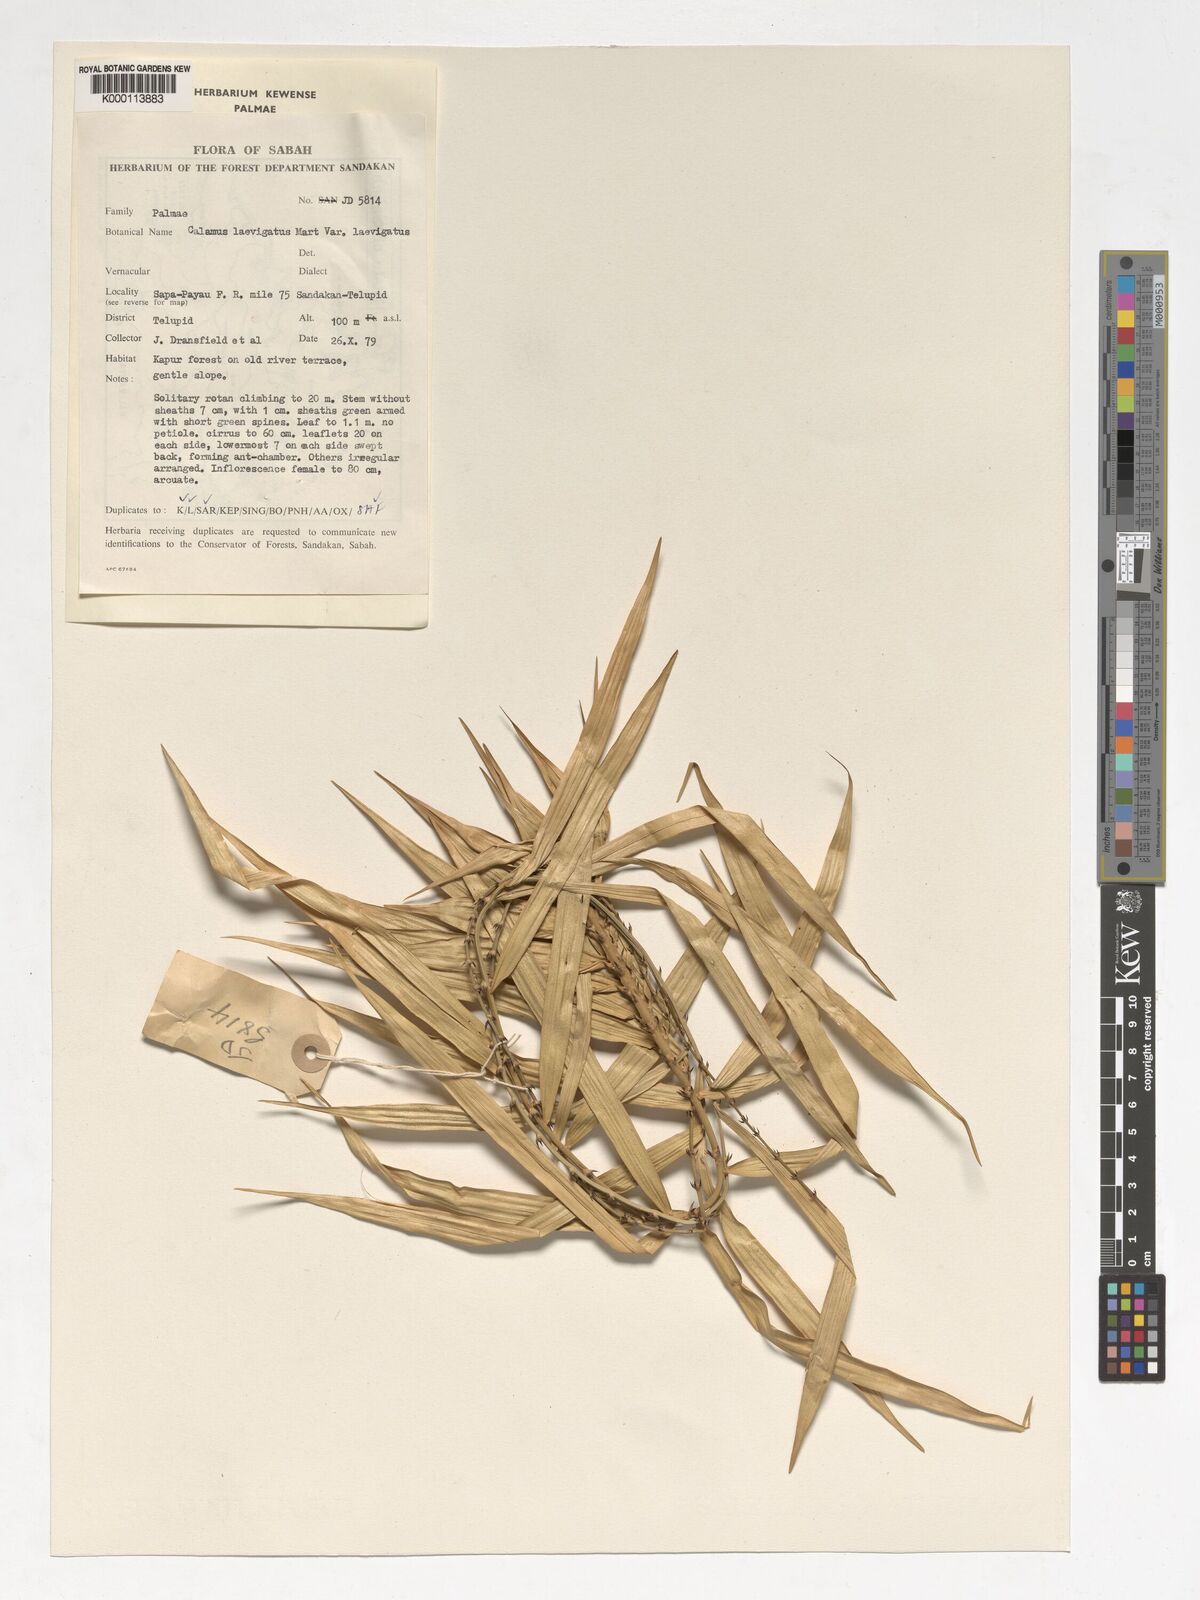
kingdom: Plantae
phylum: Tracheophyta
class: Liliopsida
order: Arecales
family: Arecaceae
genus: Calamus
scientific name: Calamus
